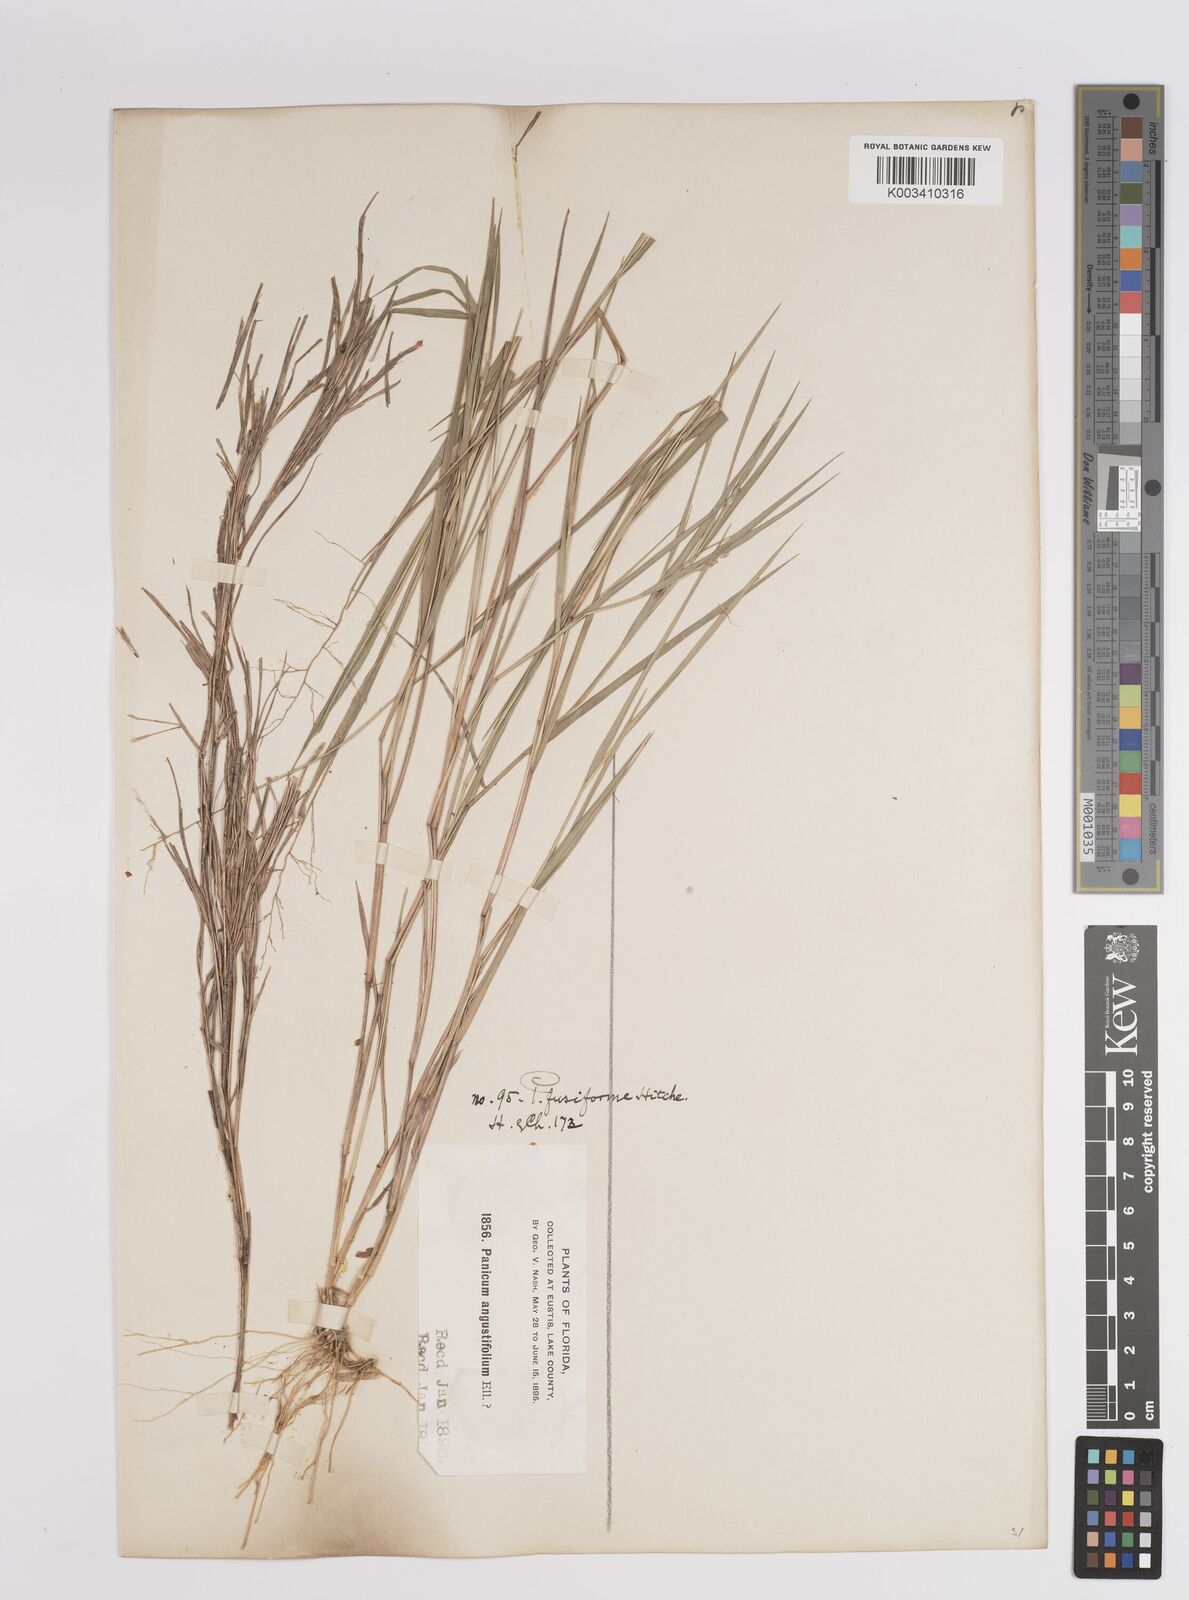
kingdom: Plantae
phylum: Tracheophyta
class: Liliopsida
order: Poales
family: Poaceae
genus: Dichanthelium
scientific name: Dichanthelium aciculare
